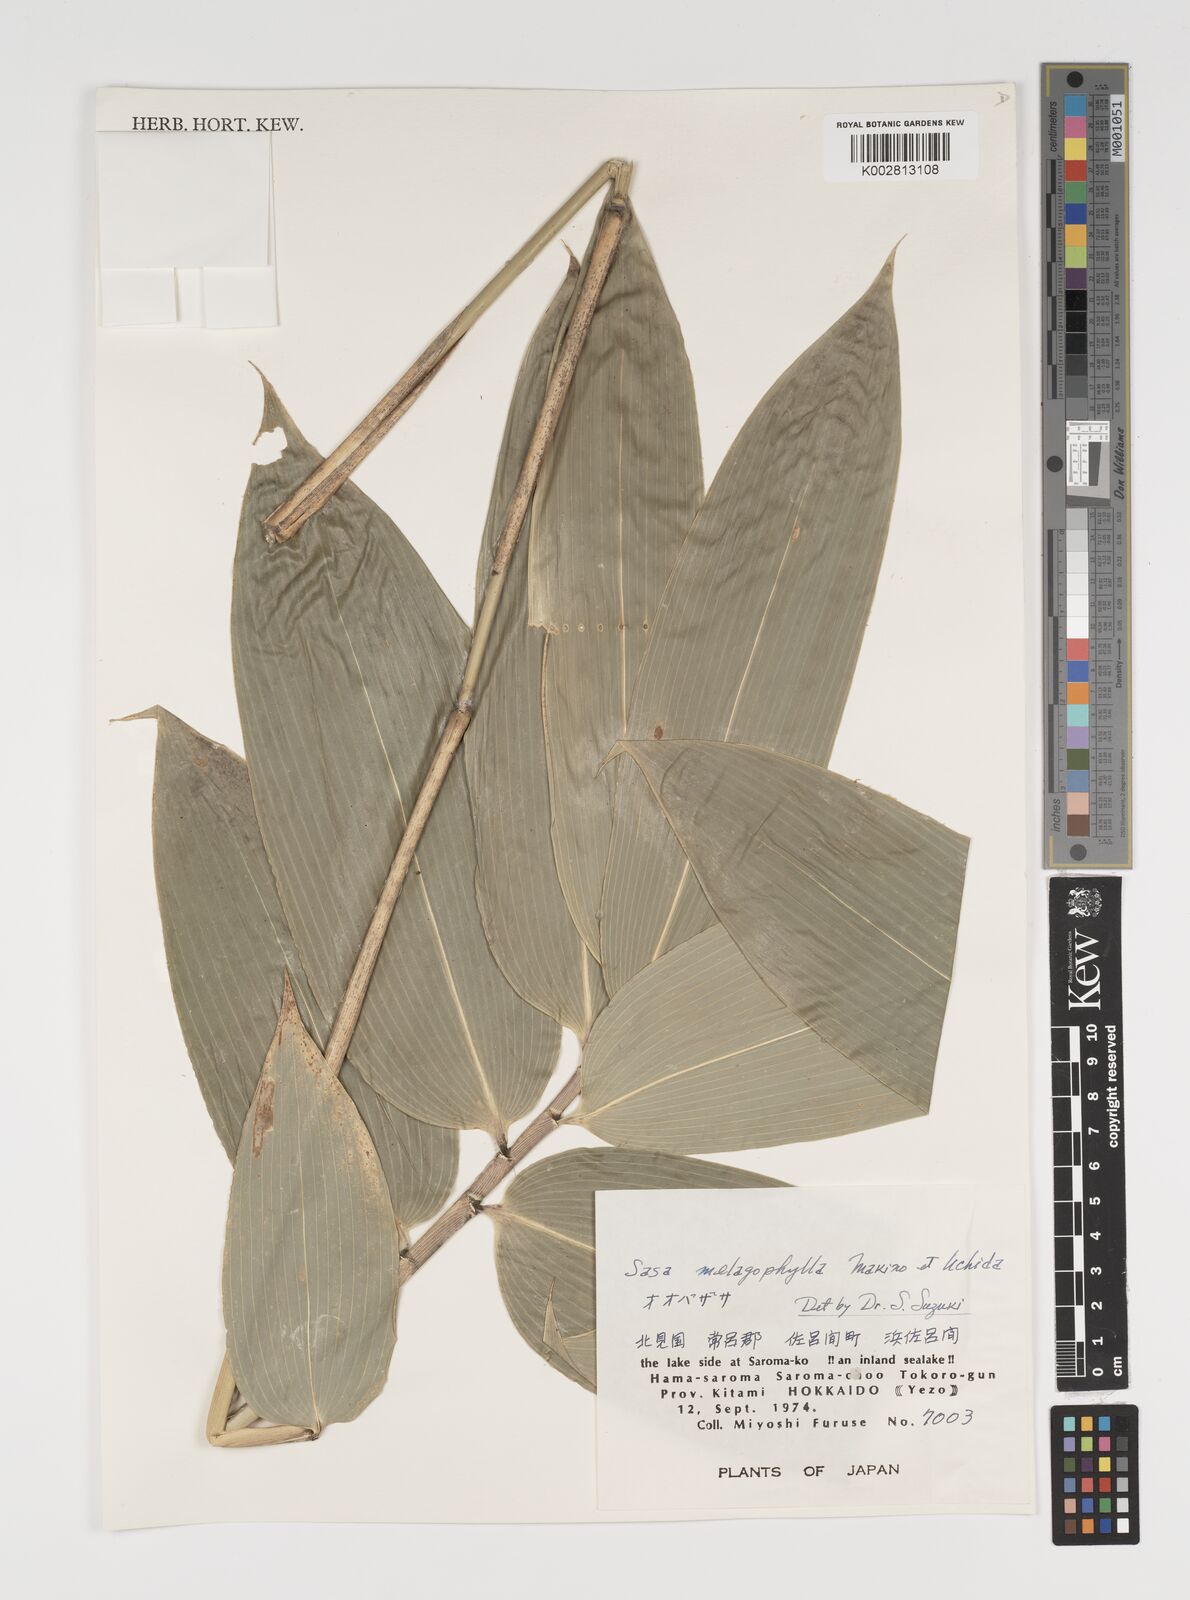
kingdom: Plantae
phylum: Tracheophyta
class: Liliopsida
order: Poales
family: Poaceae
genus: Sasa
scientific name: Sasa megalophylla
